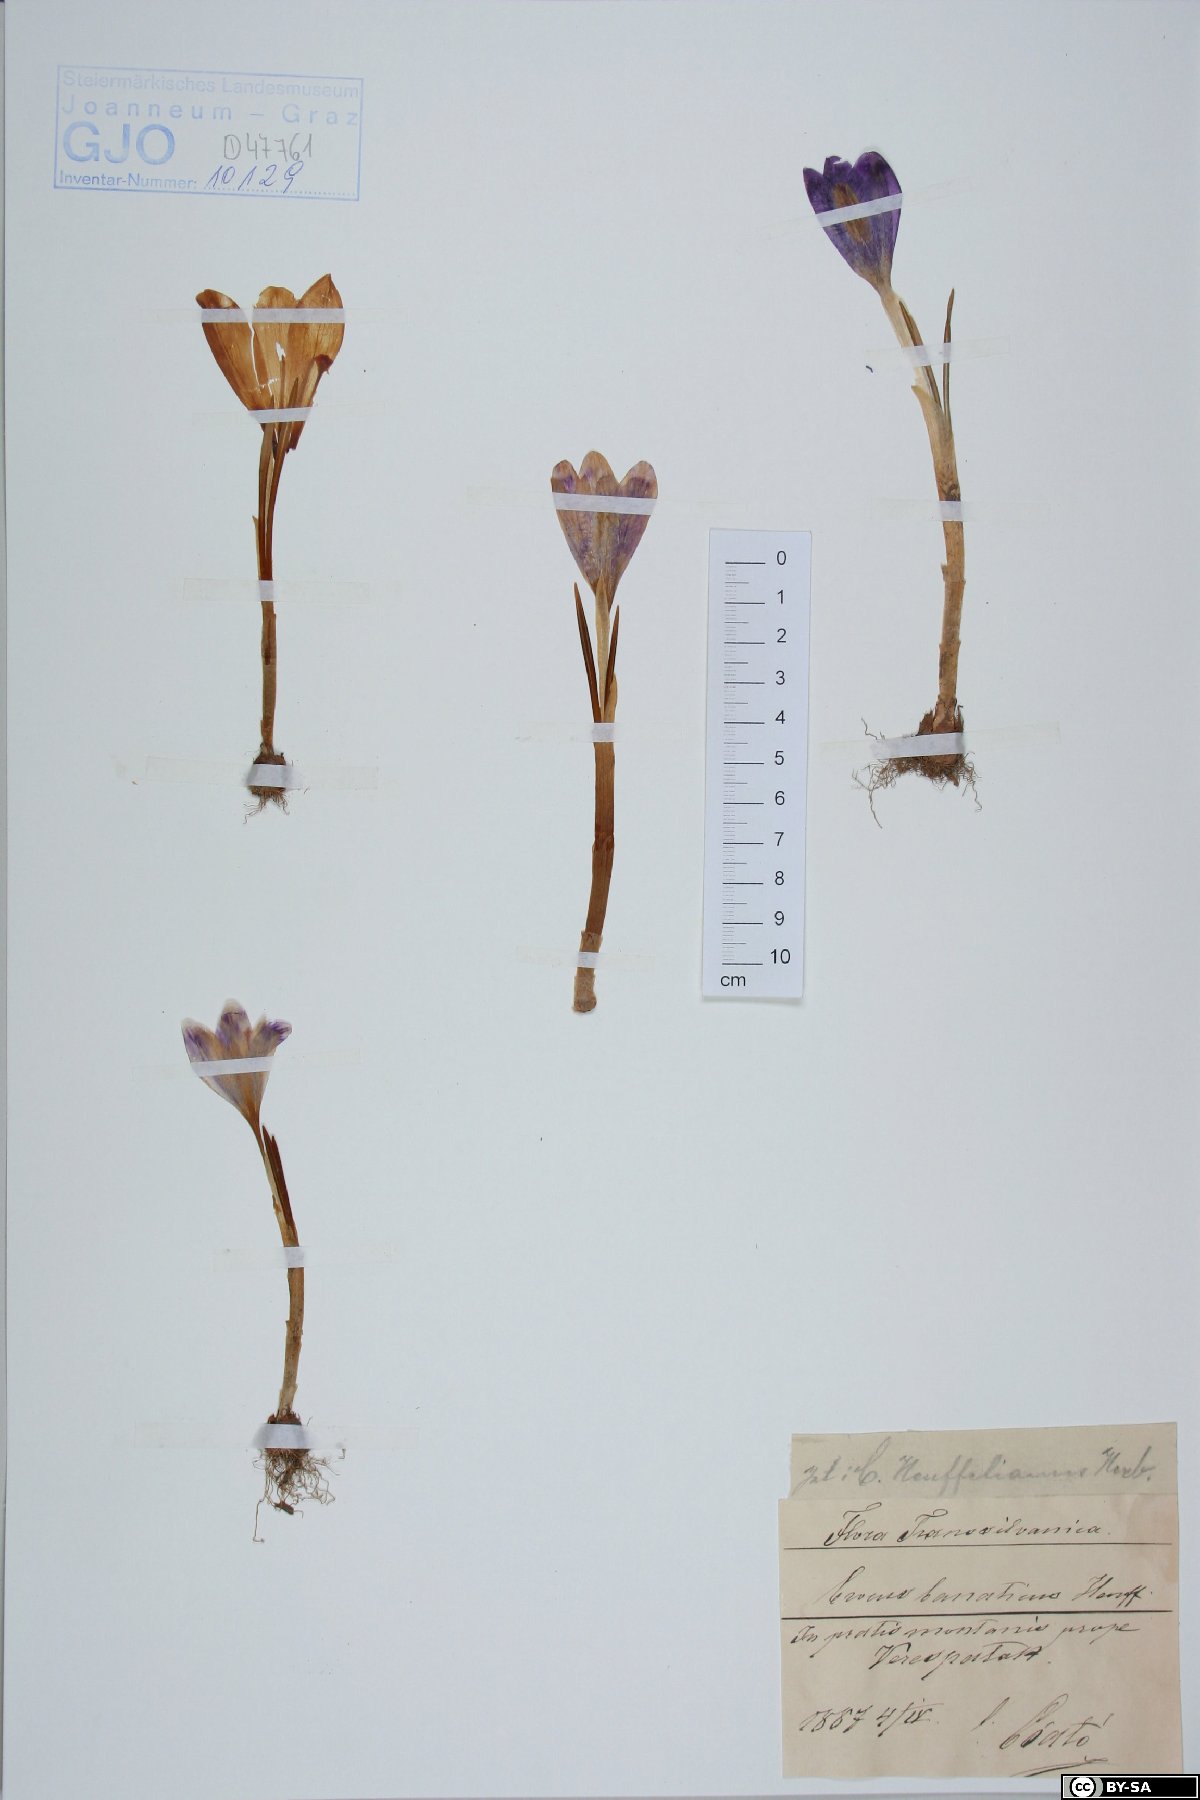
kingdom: Plantae
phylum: Tracheophyta
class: Liliopsida
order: Asparagales
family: Iridaceae
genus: Crocus
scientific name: Crocus heuffelianus
